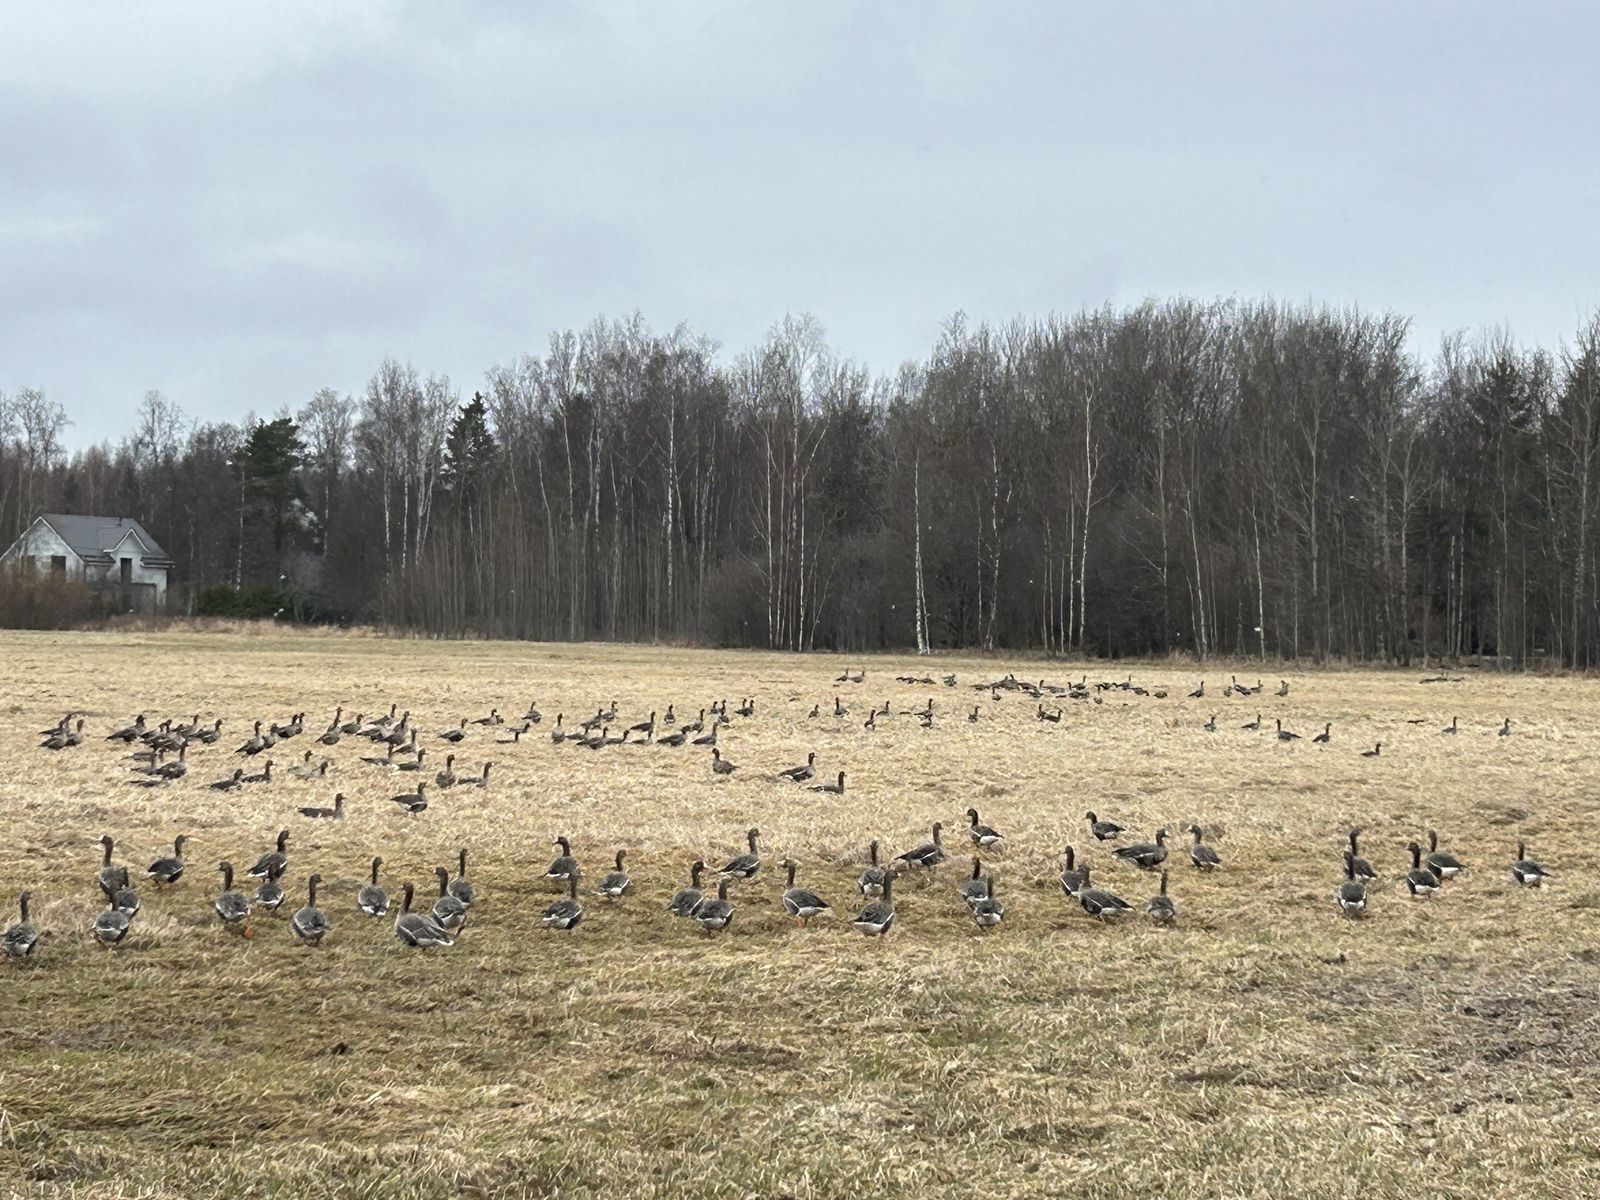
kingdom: Animalia
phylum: Chordata
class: Aves
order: Anseriformes
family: Anatidae
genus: Anser
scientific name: Anser anser
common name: Greylag goose
